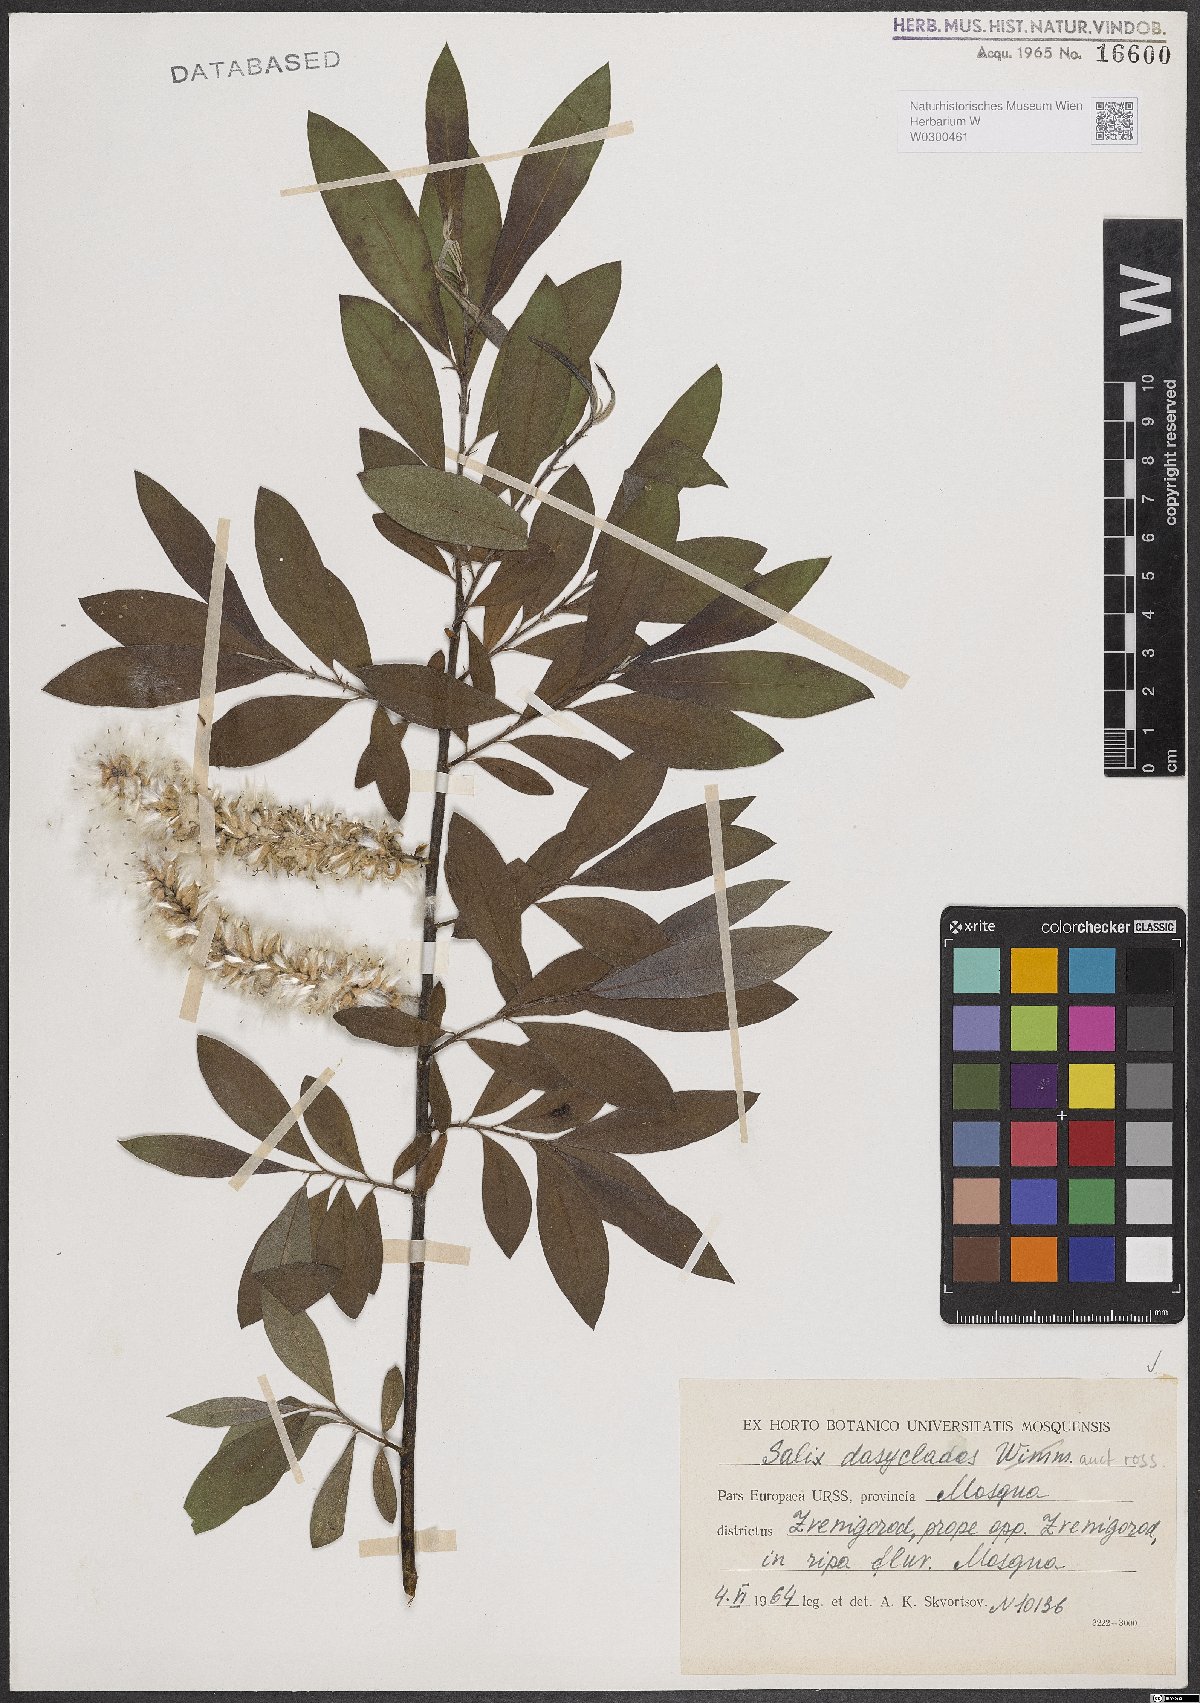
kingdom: Plantae
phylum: Tracheophyta
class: Magnoliopsida
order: Malpighiales
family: Salicaceae
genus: Salix
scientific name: Salix gmelinii
